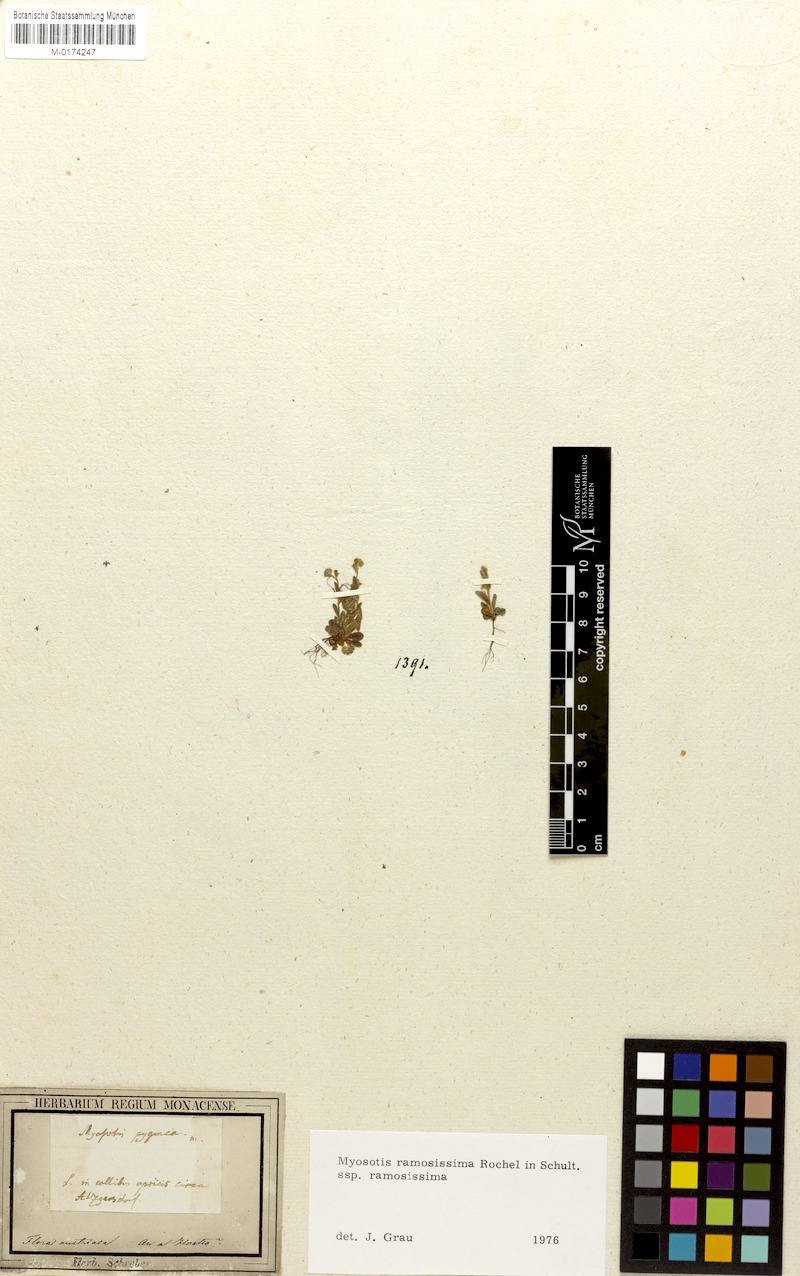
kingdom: Plantae
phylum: Tracheophyta
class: Magnoliopsida
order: Boraginales
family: Boraginaceae
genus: Myosotis
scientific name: Myosotis ramosissima
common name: Early forget-me-not
